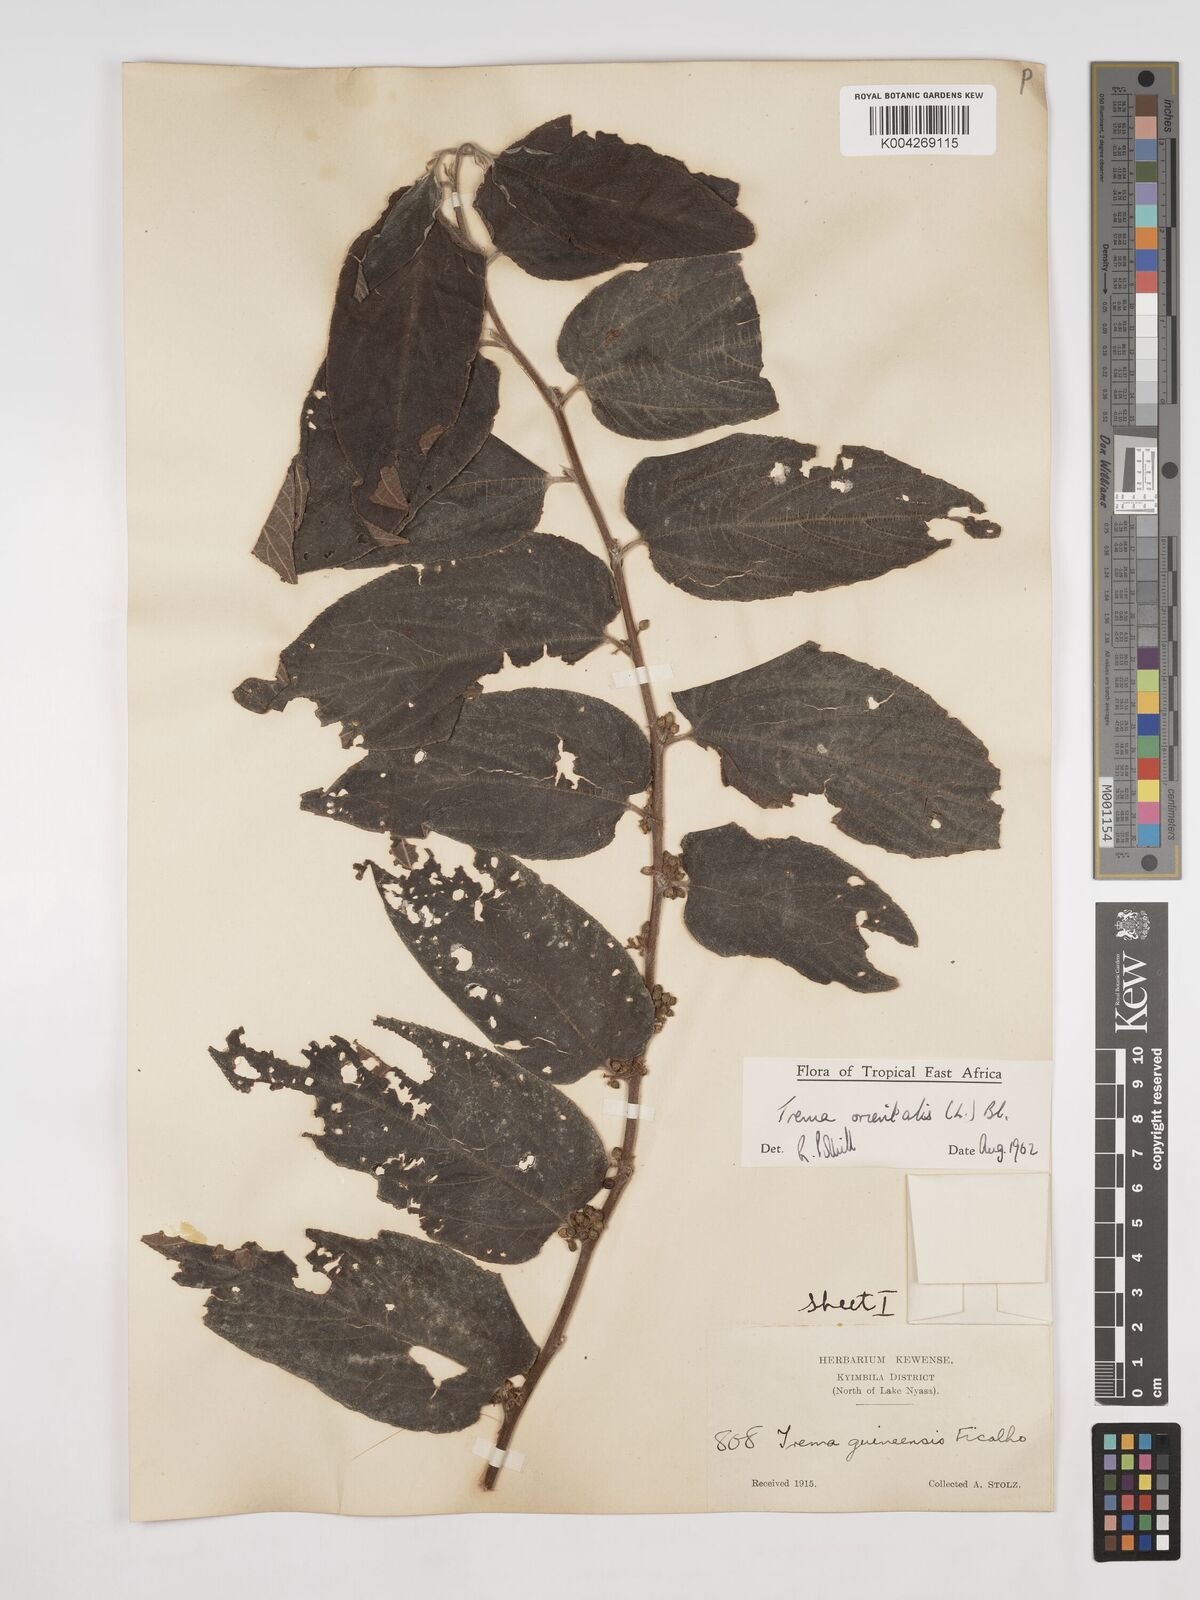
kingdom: Plantae
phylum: Tracheophyta
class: Magnoliopsida
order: Rosales
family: Cannabaceae
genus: Trema
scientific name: Trema orientale
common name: Indian charcoal tree
